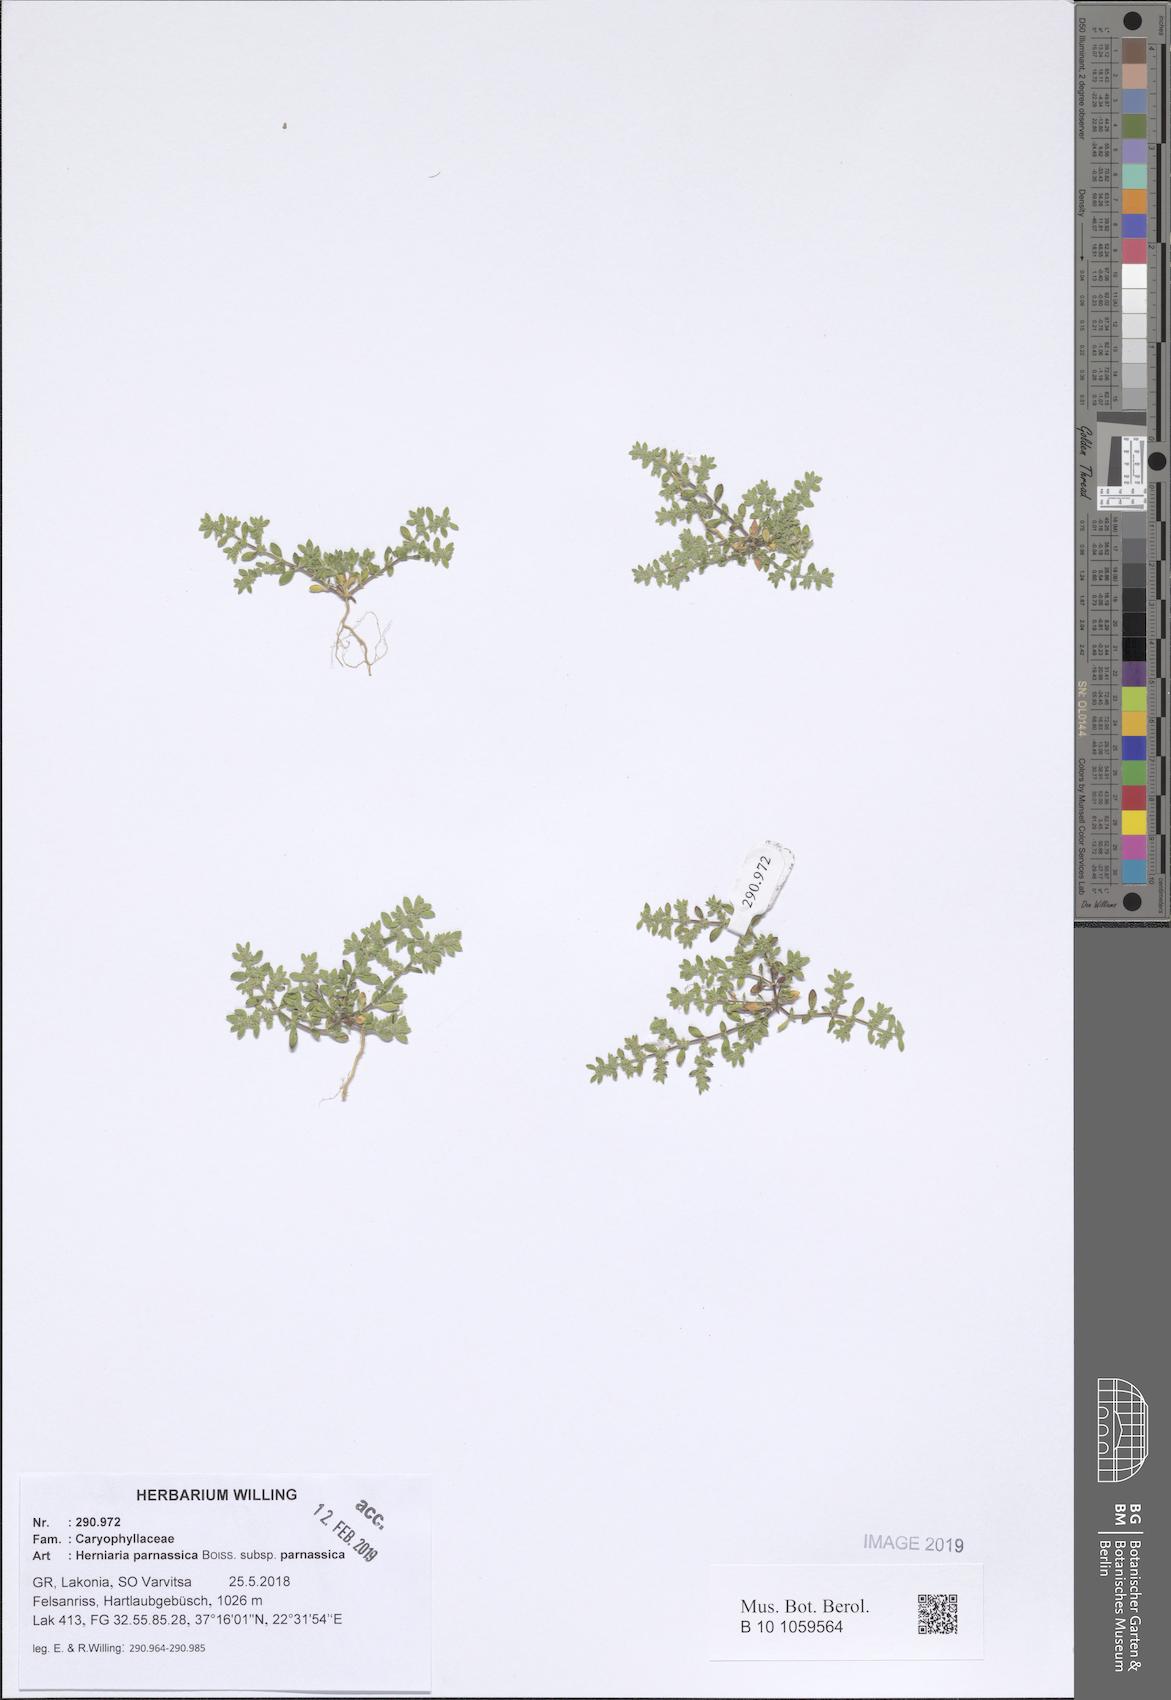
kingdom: Plantae
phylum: Tracheophyta
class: Magnoliopsida
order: Caryophyllales
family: Caryophyllaceae
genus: Herniaria
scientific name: Herniaria parnassica
